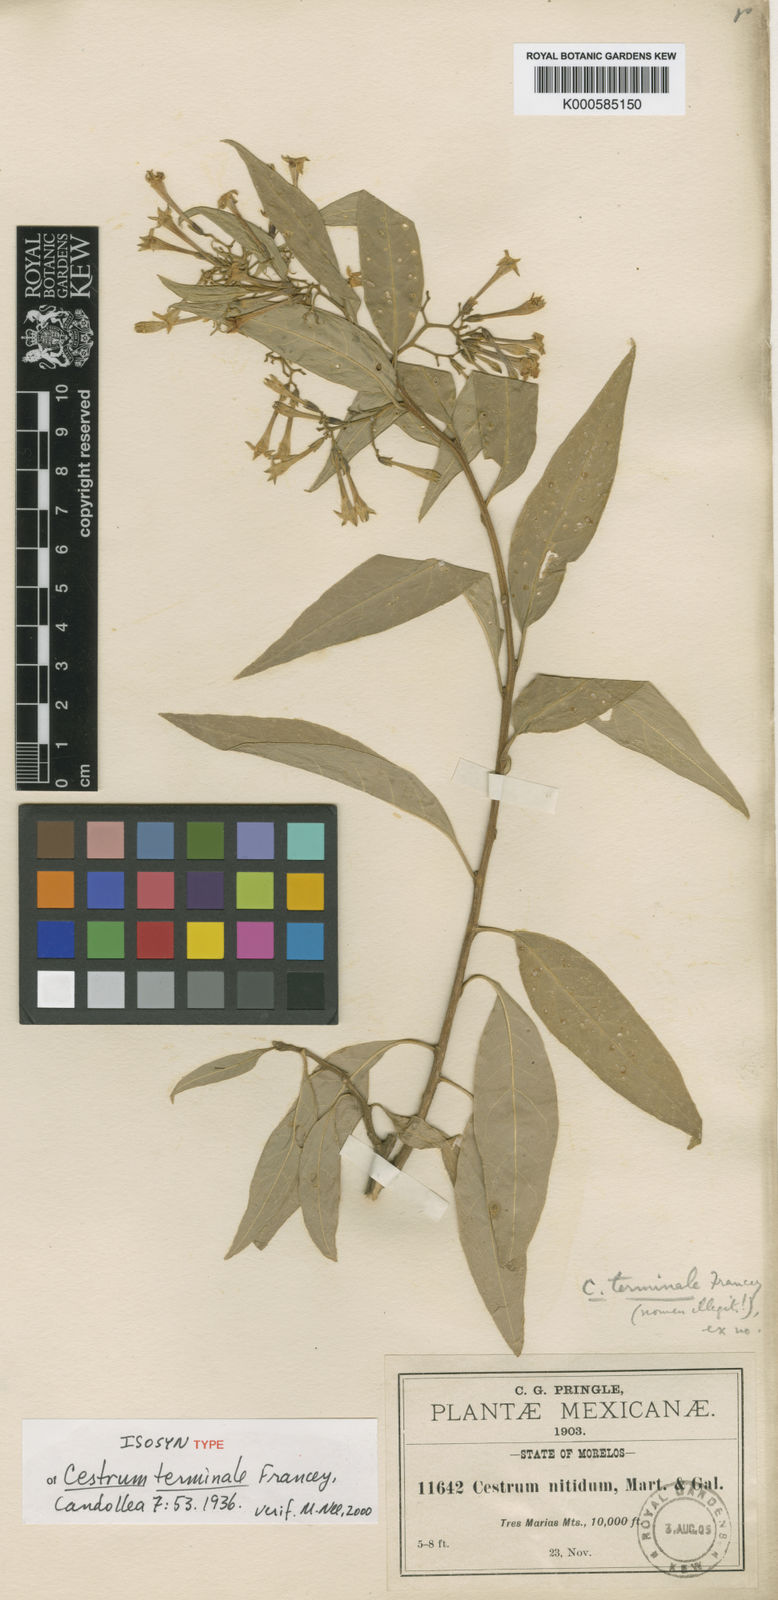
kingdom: Plantae
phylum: Tracheophyta
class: Magnoliopsida
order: Solanales
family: Solanaceae
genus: Cestrum
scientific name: Cestrum nitidum
